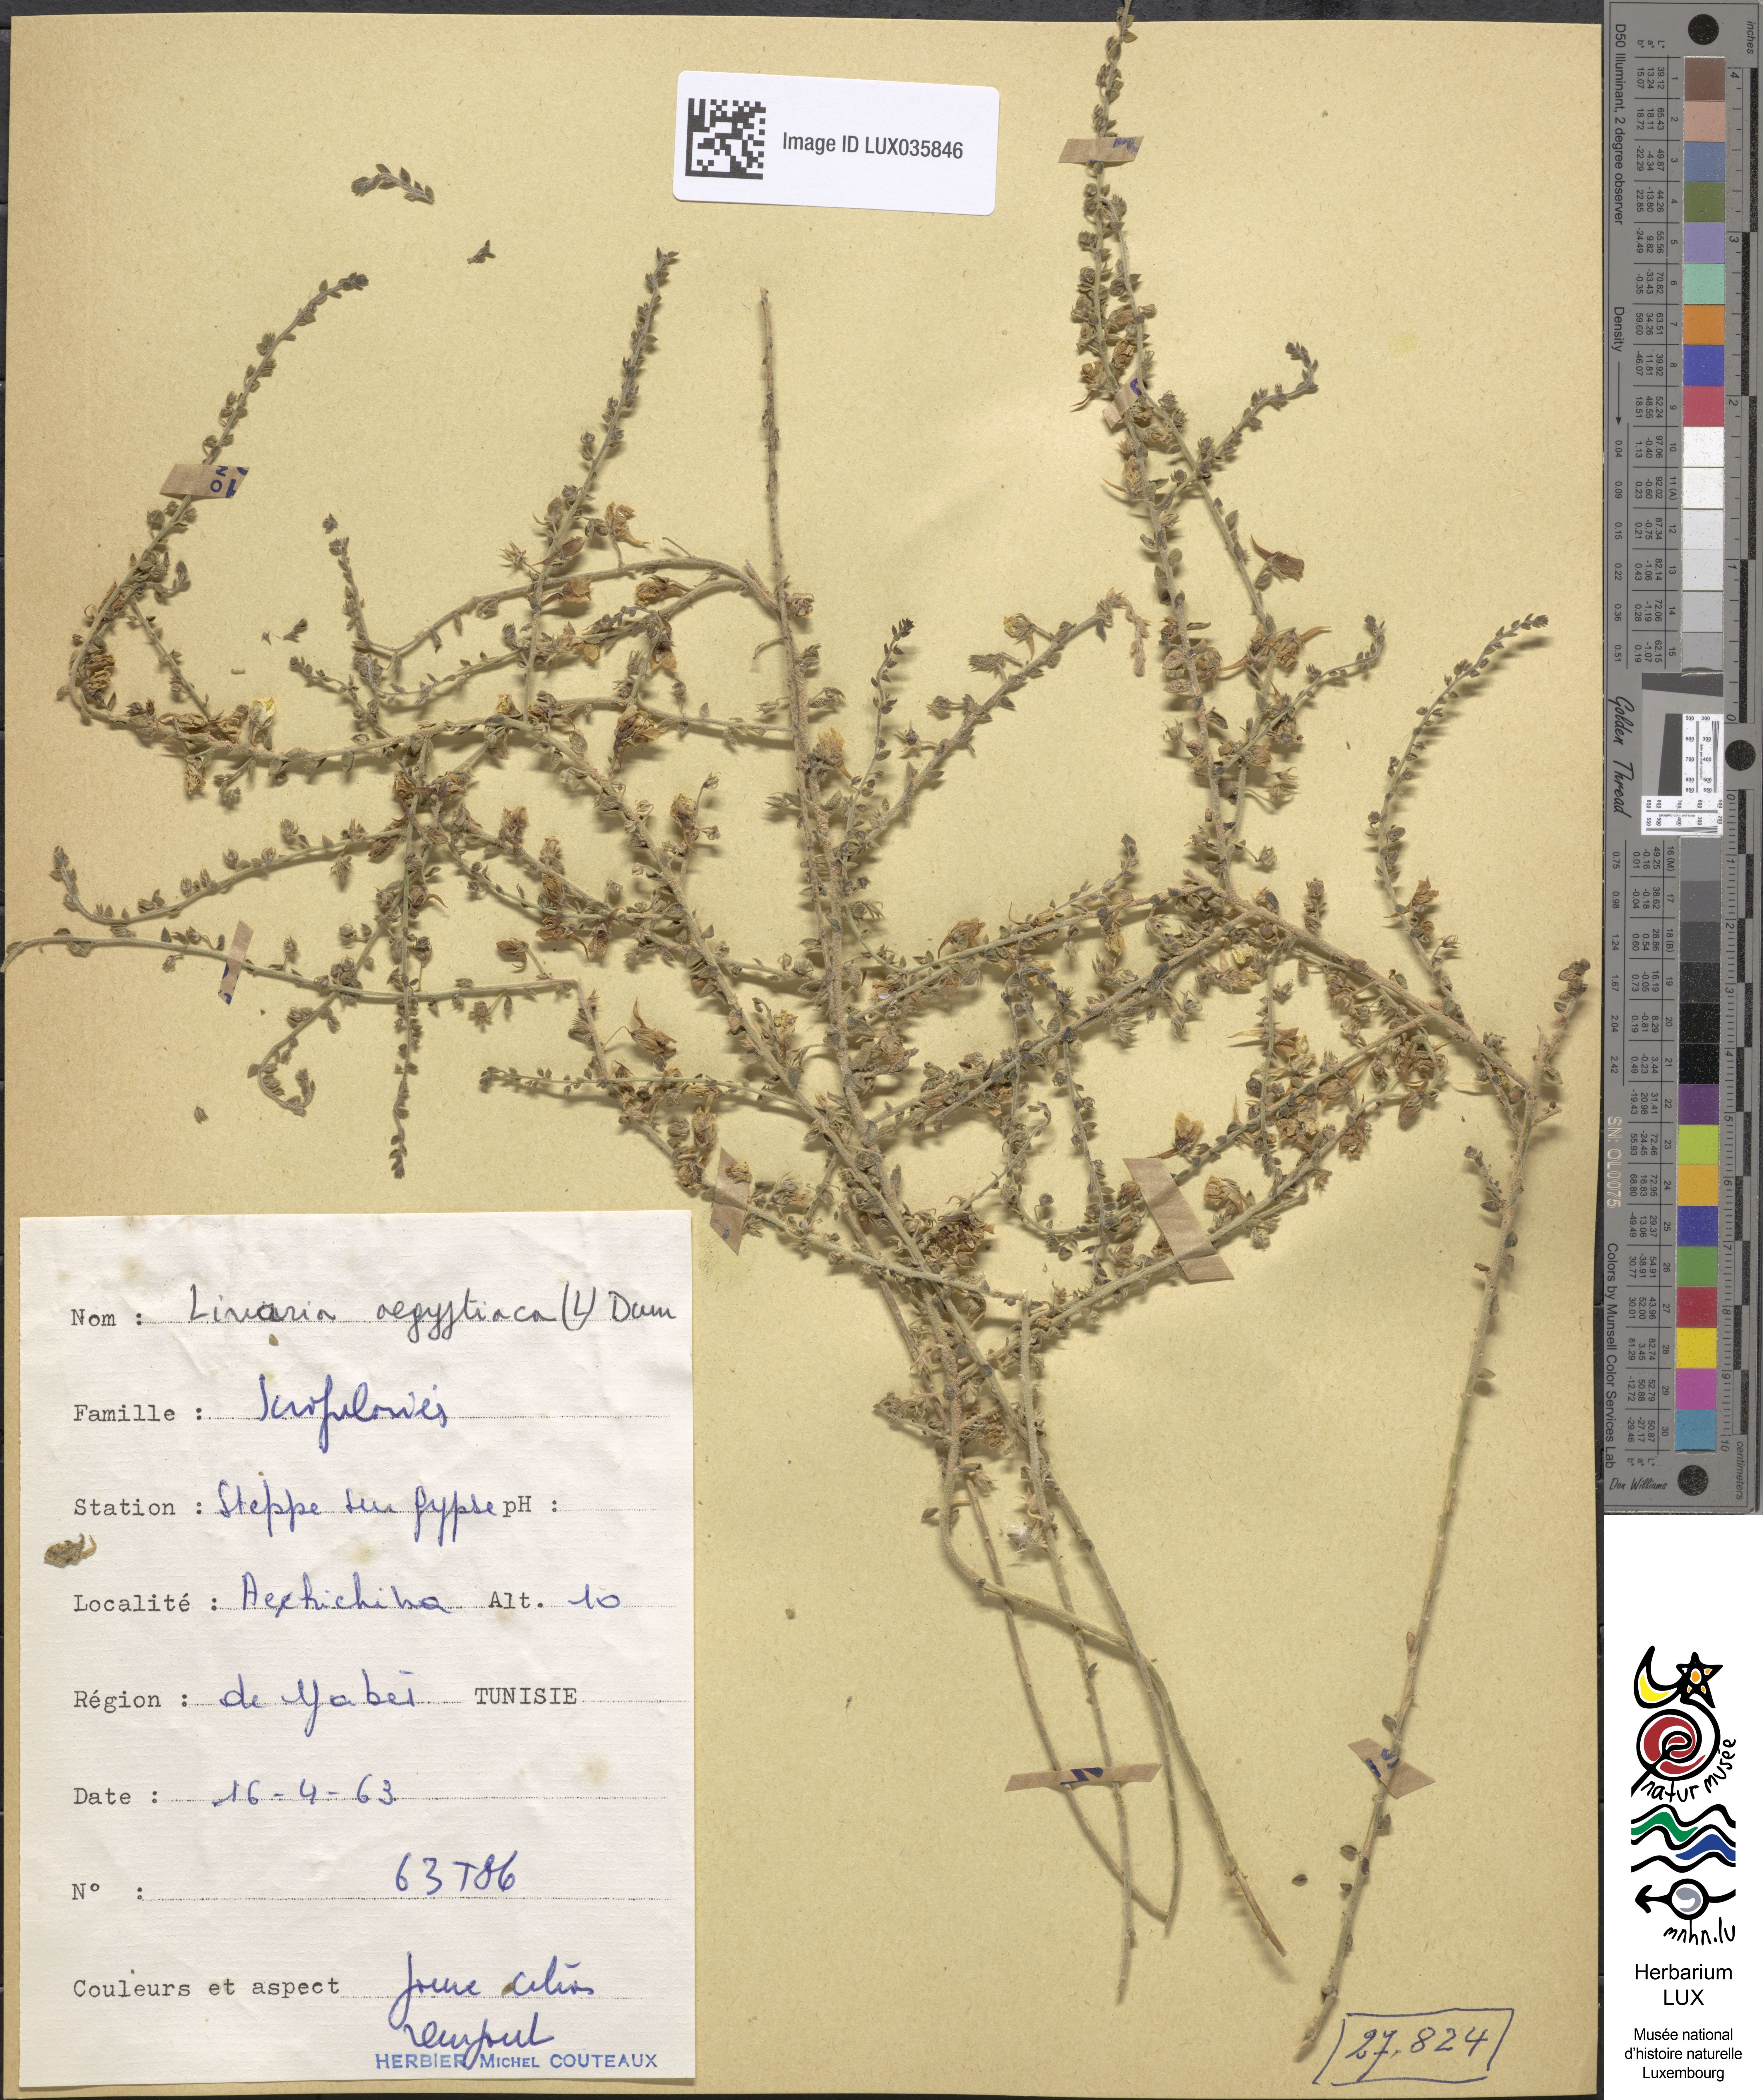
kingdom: Plantae
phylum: Tracheophyta
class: Magnoliopsida
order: Lamiales
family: Plantaginaceae
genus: Kickxia
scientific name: Kickxia aegyptiaca
